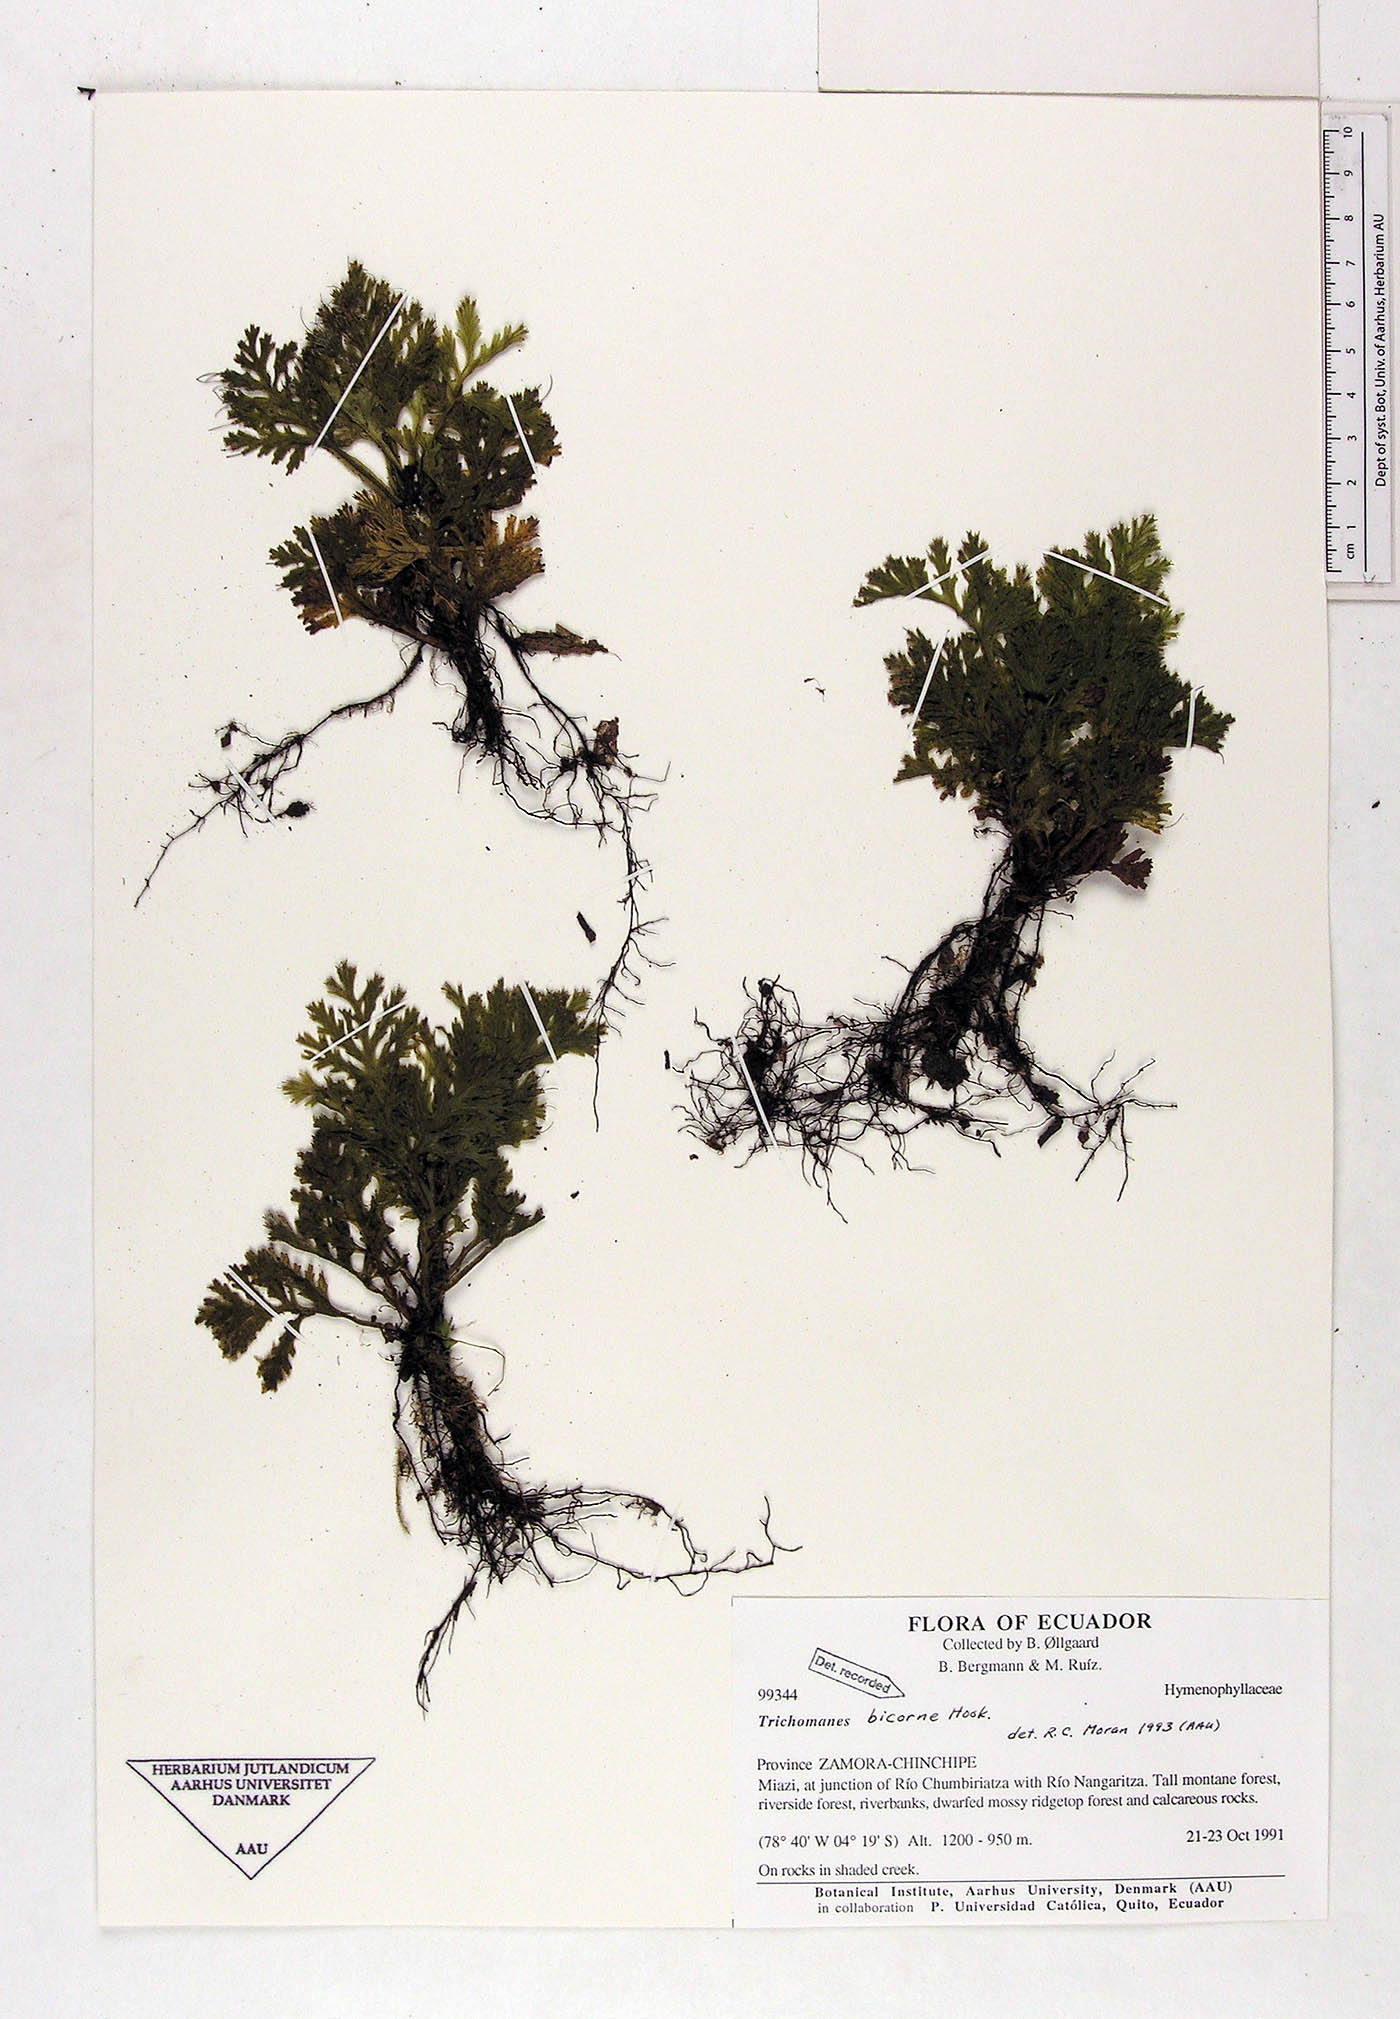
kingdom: Plantae
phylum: Tracheophyta
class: Polypodiopsida
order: Hymenophyllales
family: Hymenophyllaceae
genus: Trichomanes
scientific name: Trichomanes bicorne
